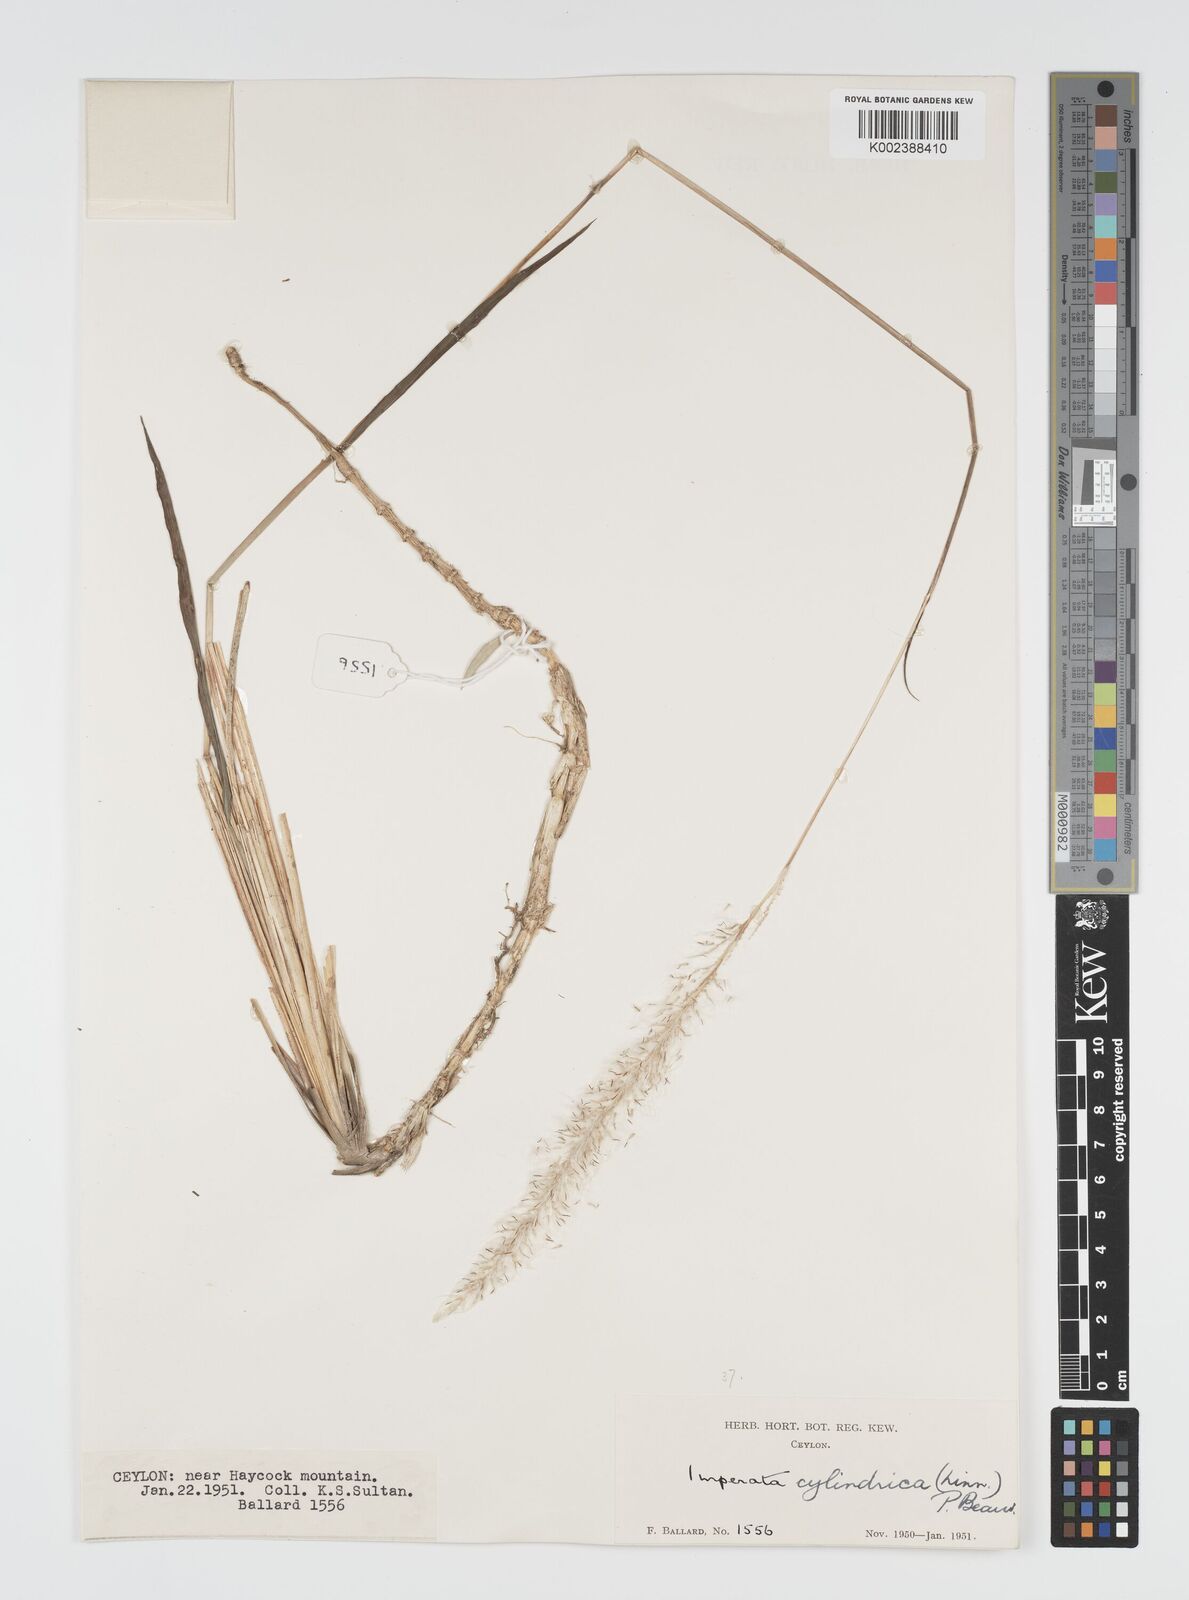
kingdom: Plantae
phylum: Tracheophyta
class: Liliopsida
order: Poales
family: Poaceae
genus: Imperata
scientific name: Imperata cylindrica
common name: Cogongrass
